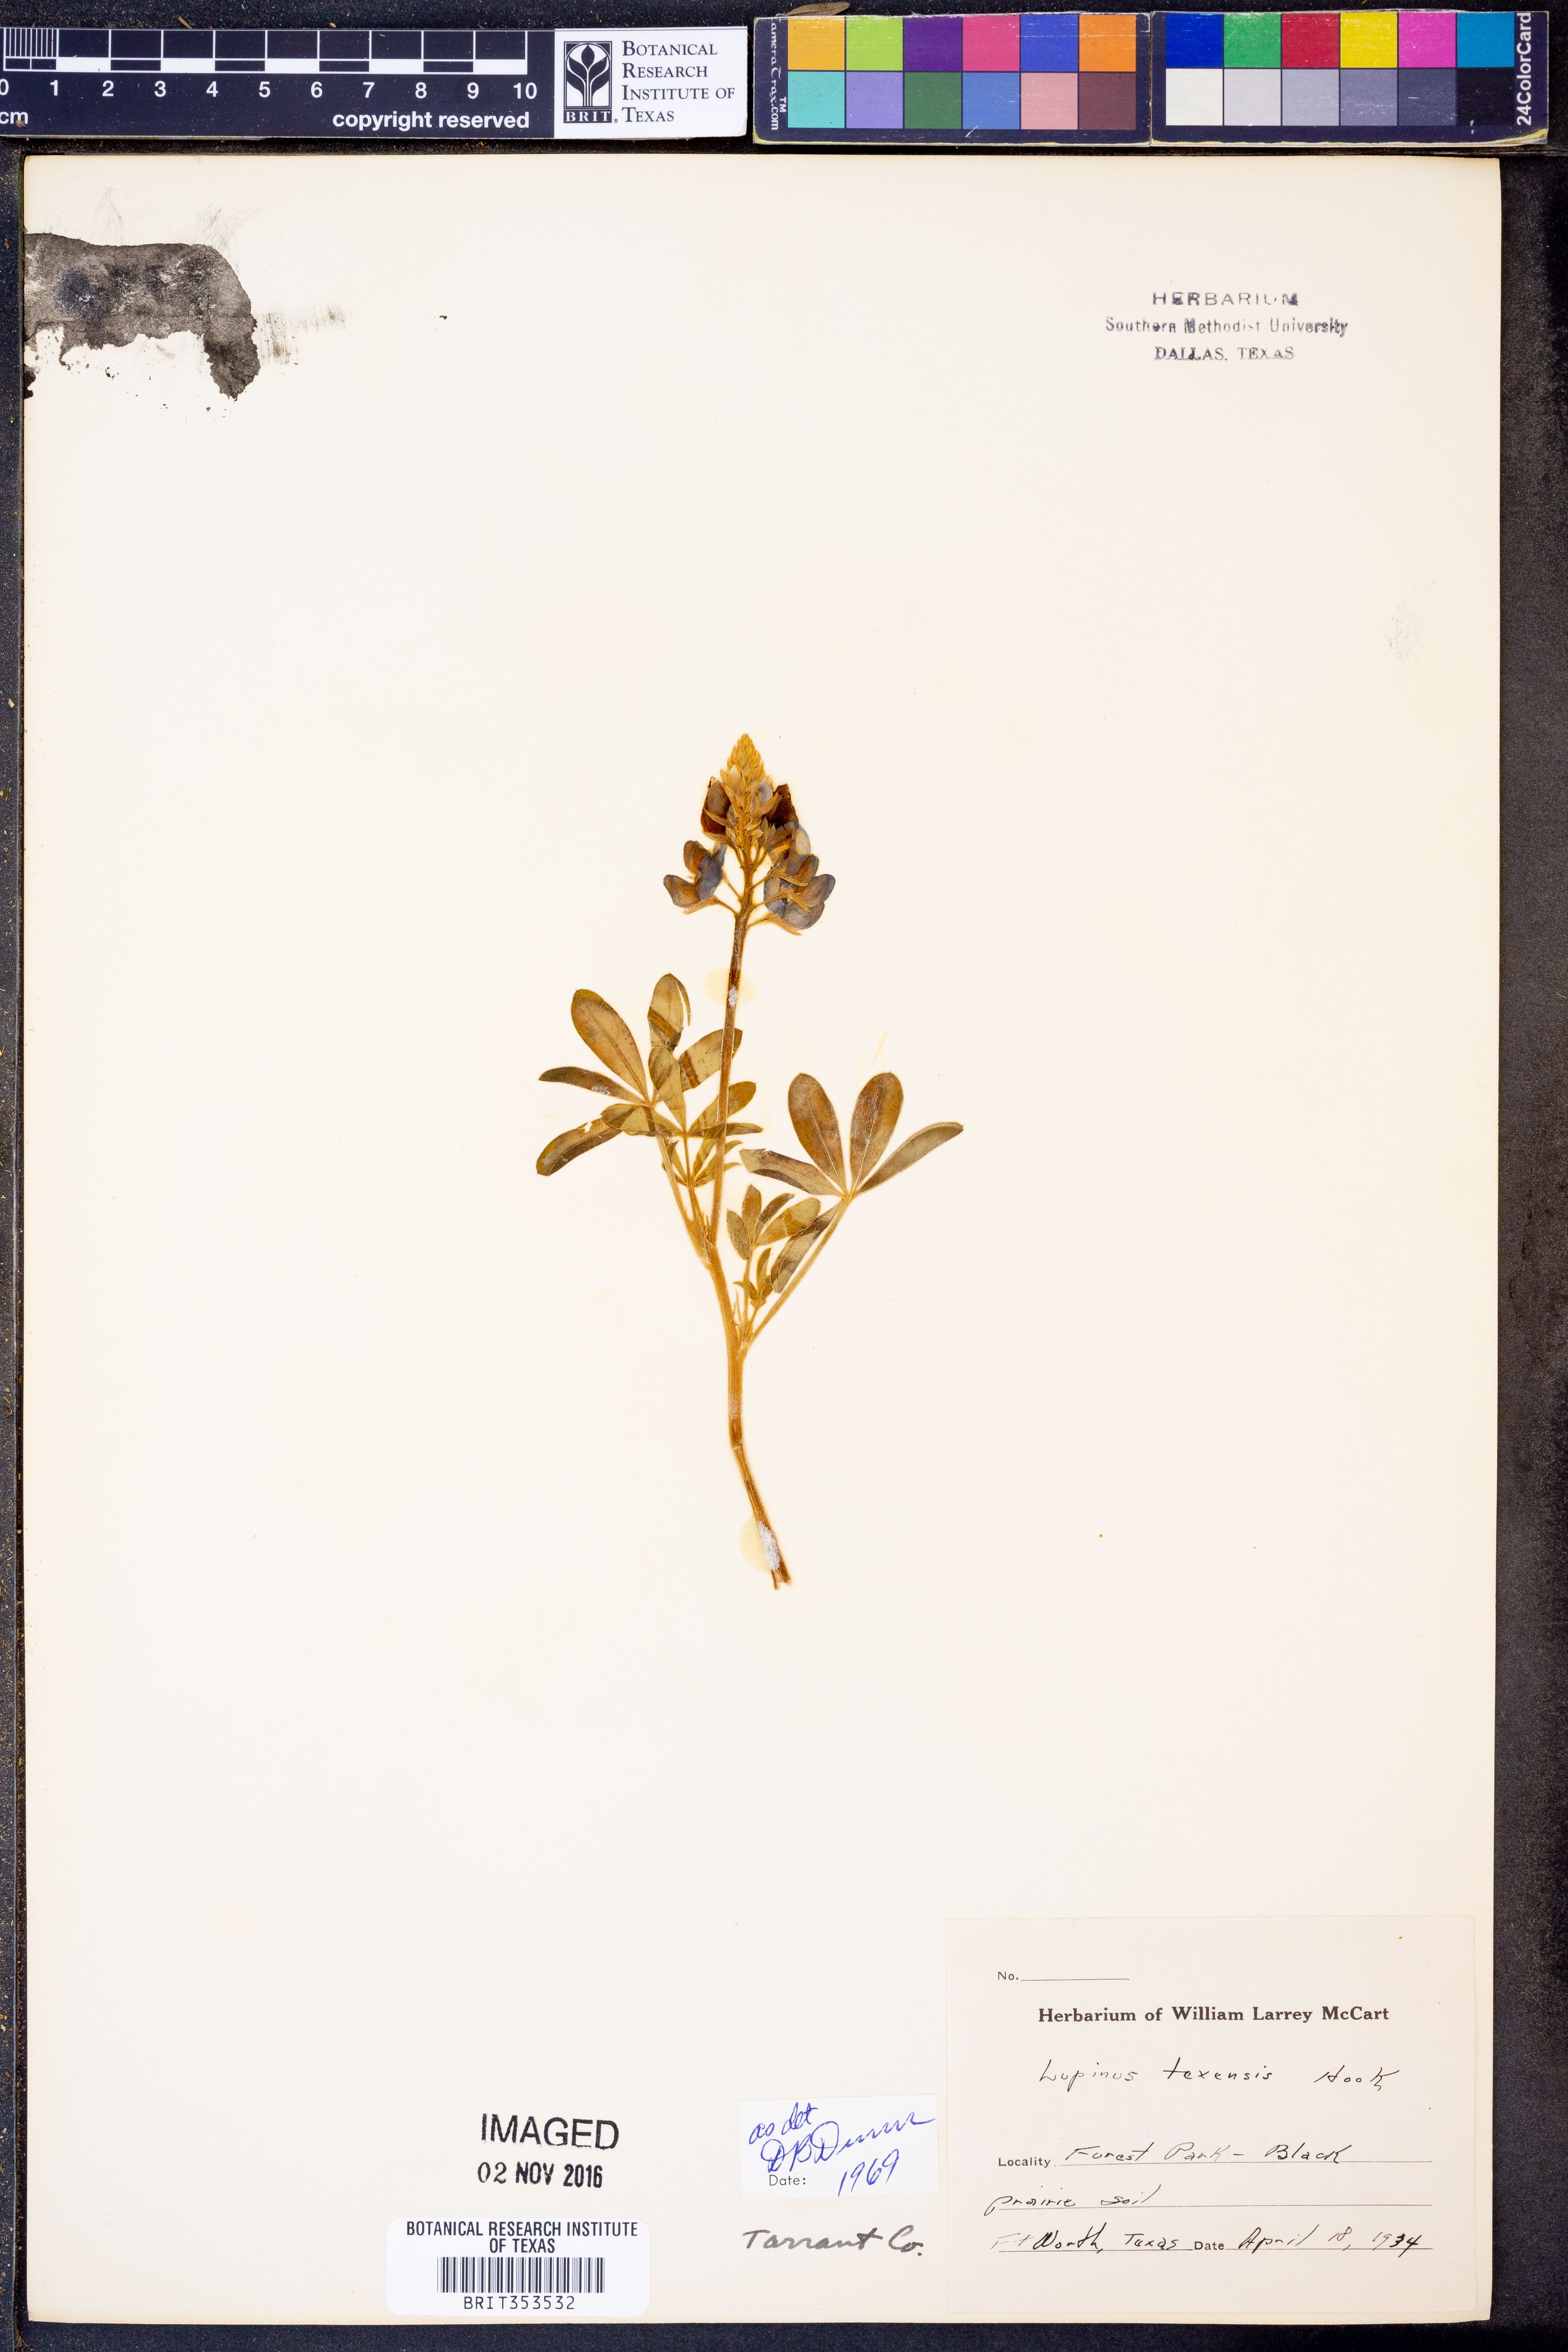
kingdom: Plantae
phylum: Tracheophyta
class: Magnoliopsida
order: Fabales
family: Fabaceae
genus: Lupinus
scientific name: Lupinus texensis
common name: Texas bluebonnet
